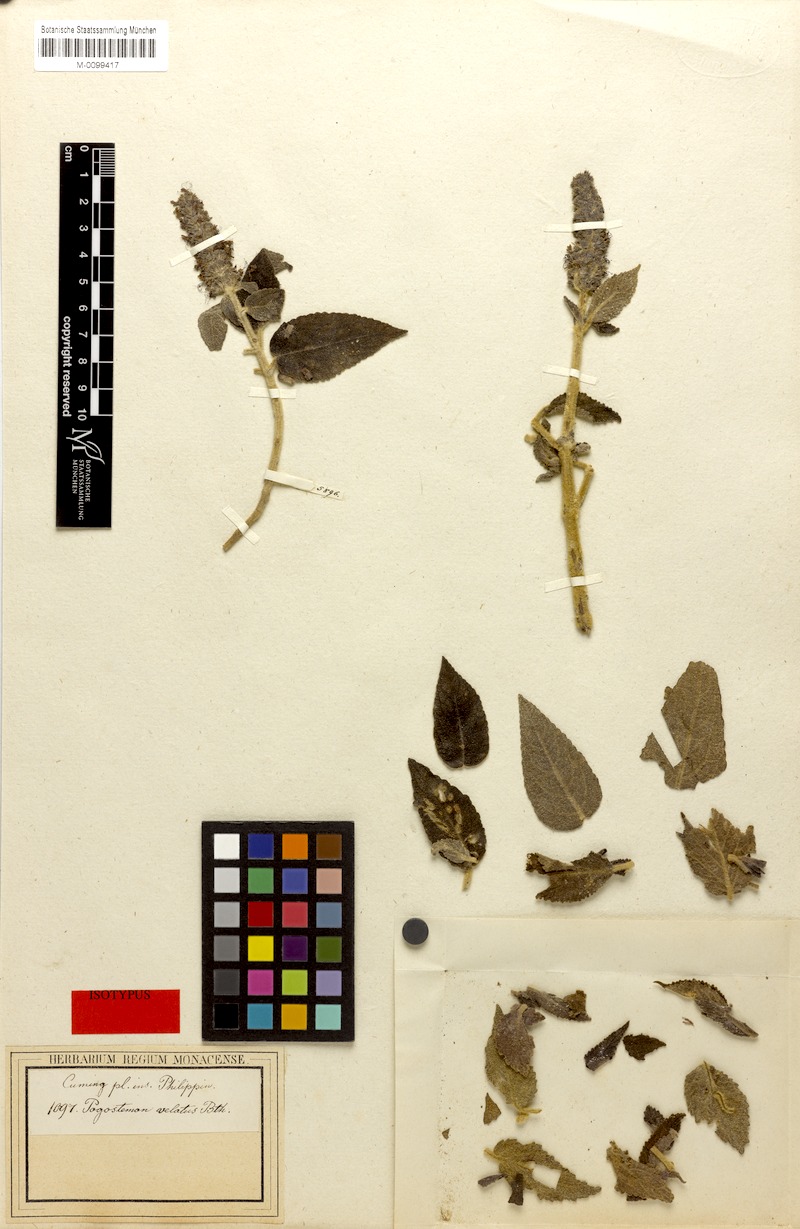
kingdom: Plantae
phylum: Tracheophyta
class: Magnoliopsida
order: Lamiales
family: Lamiaceae
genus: Pogostemon
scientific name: Pogostemon velatus
